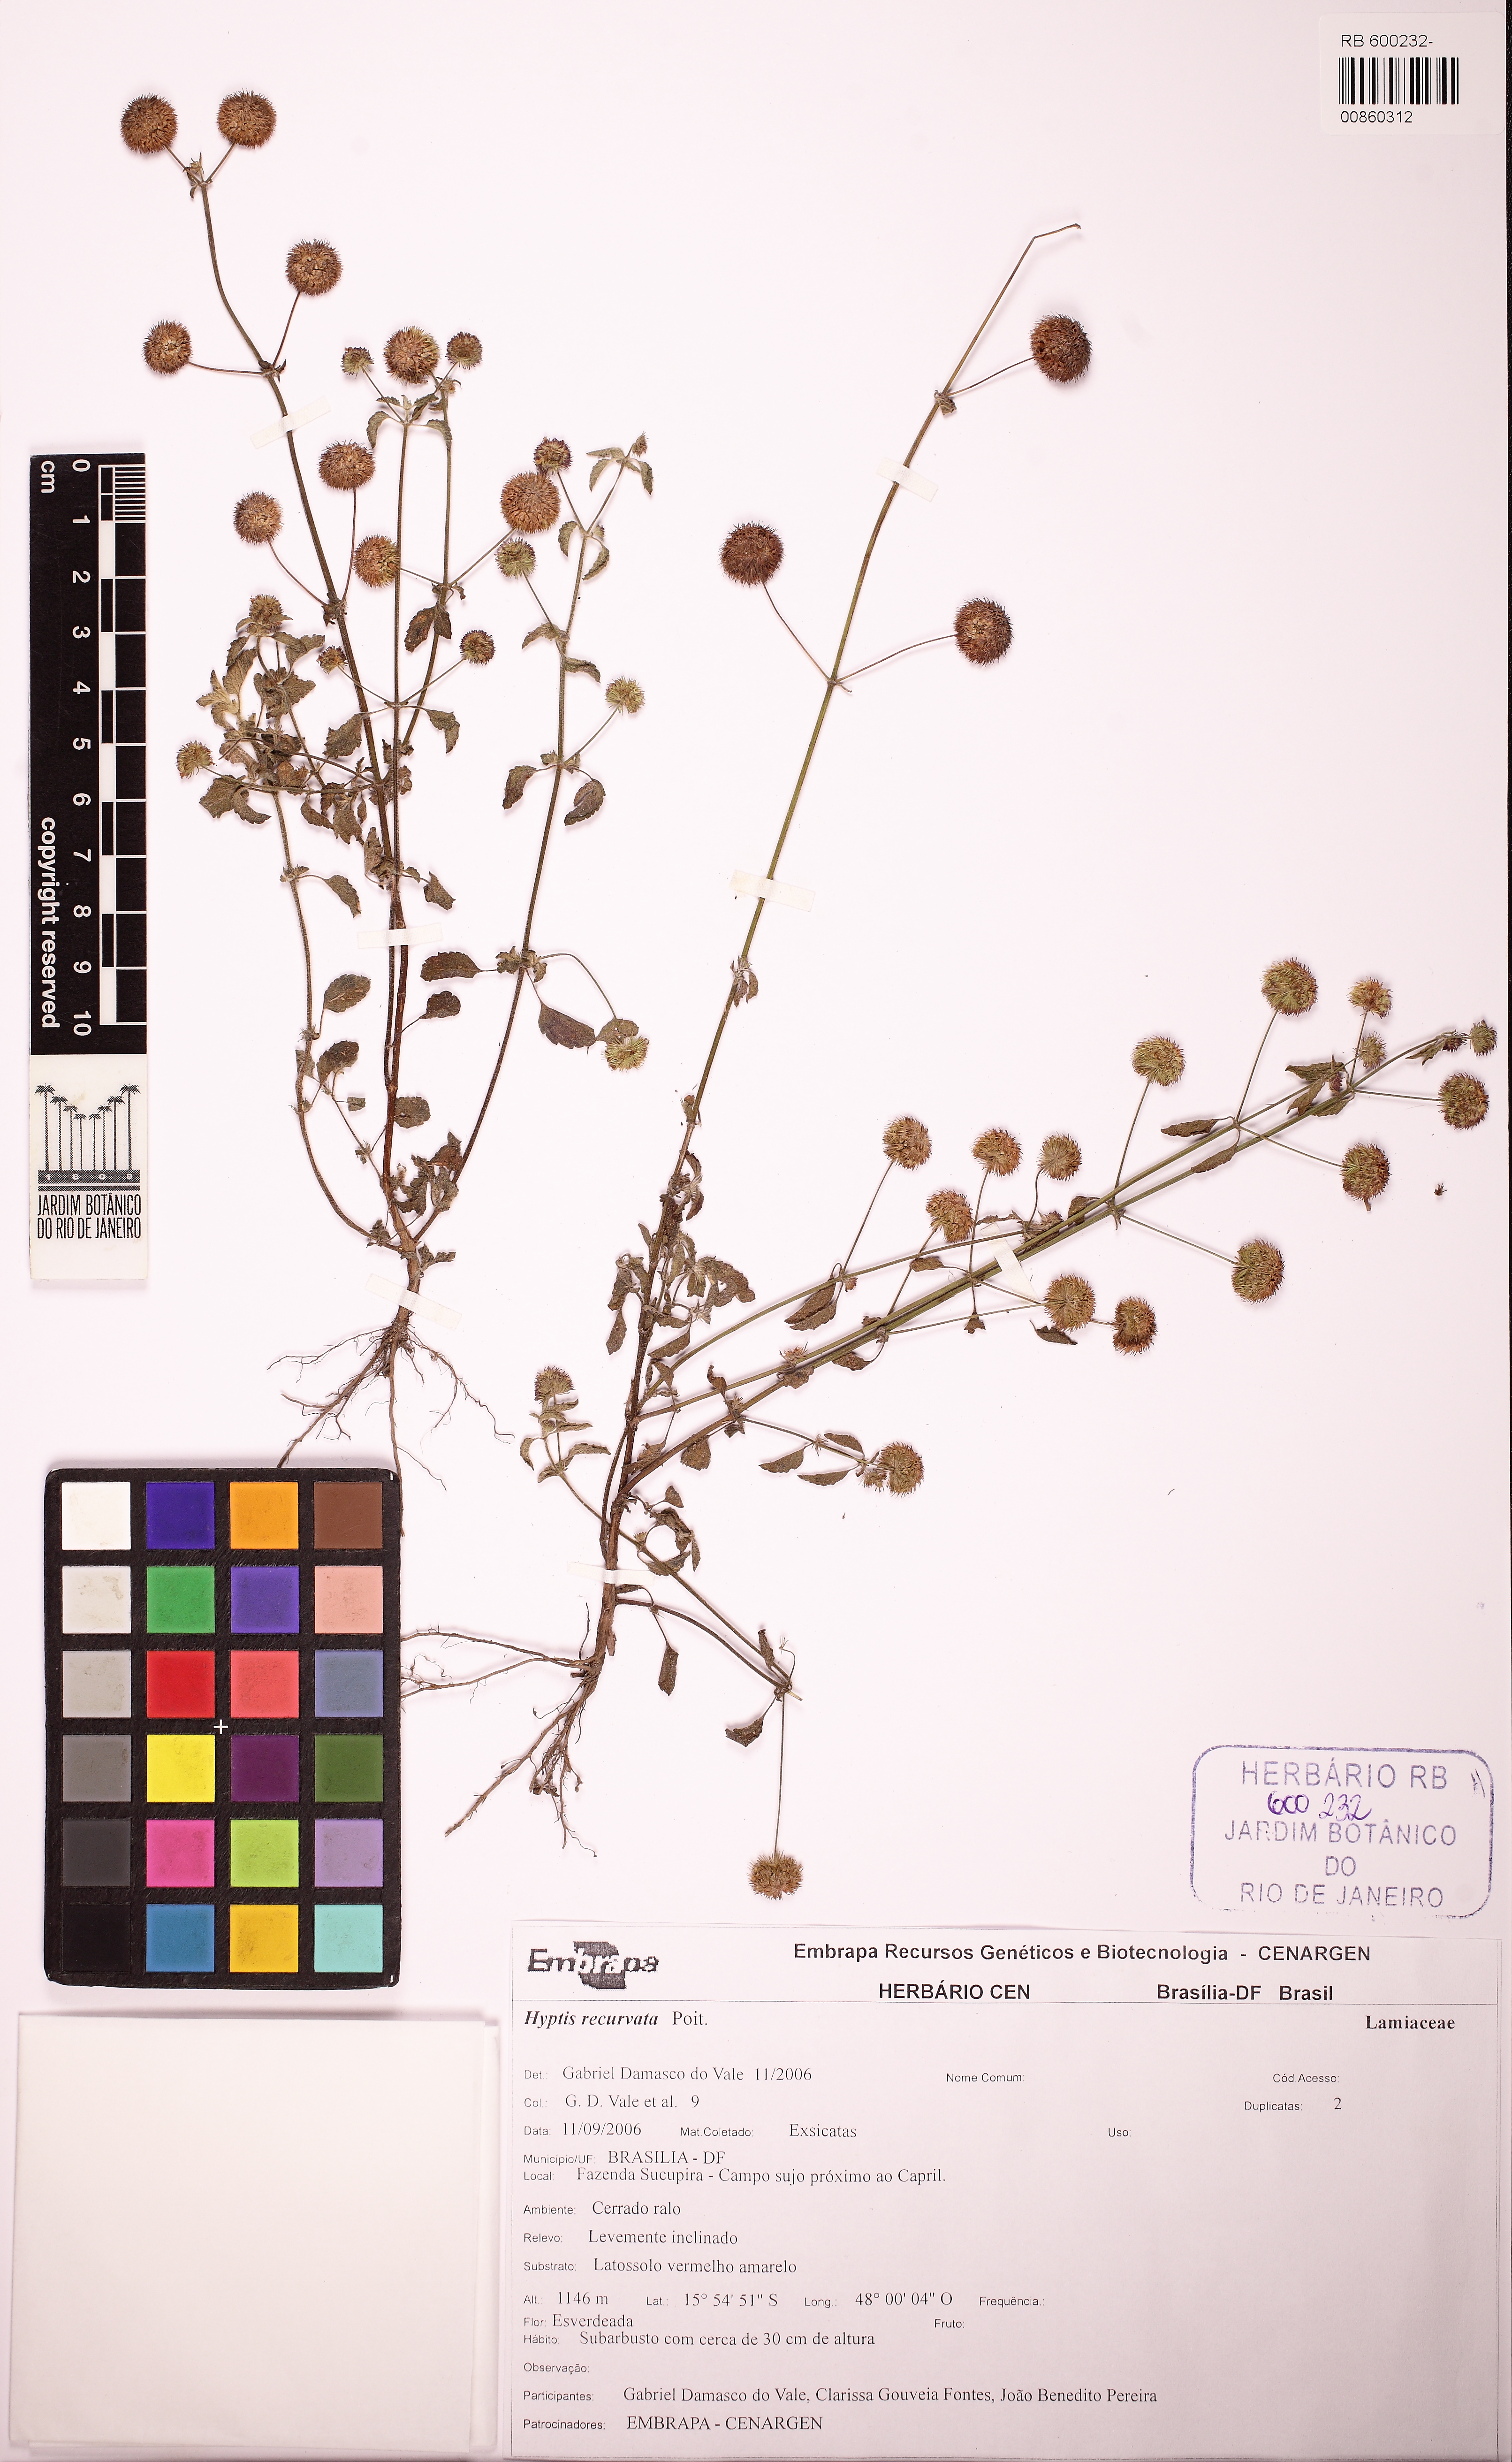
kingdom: Plantae
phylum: Tracheophyta
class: Magnoliopsida
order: Lamiales
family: Lamiaceae
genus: Hyptis
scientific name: Hyptis recurvata
